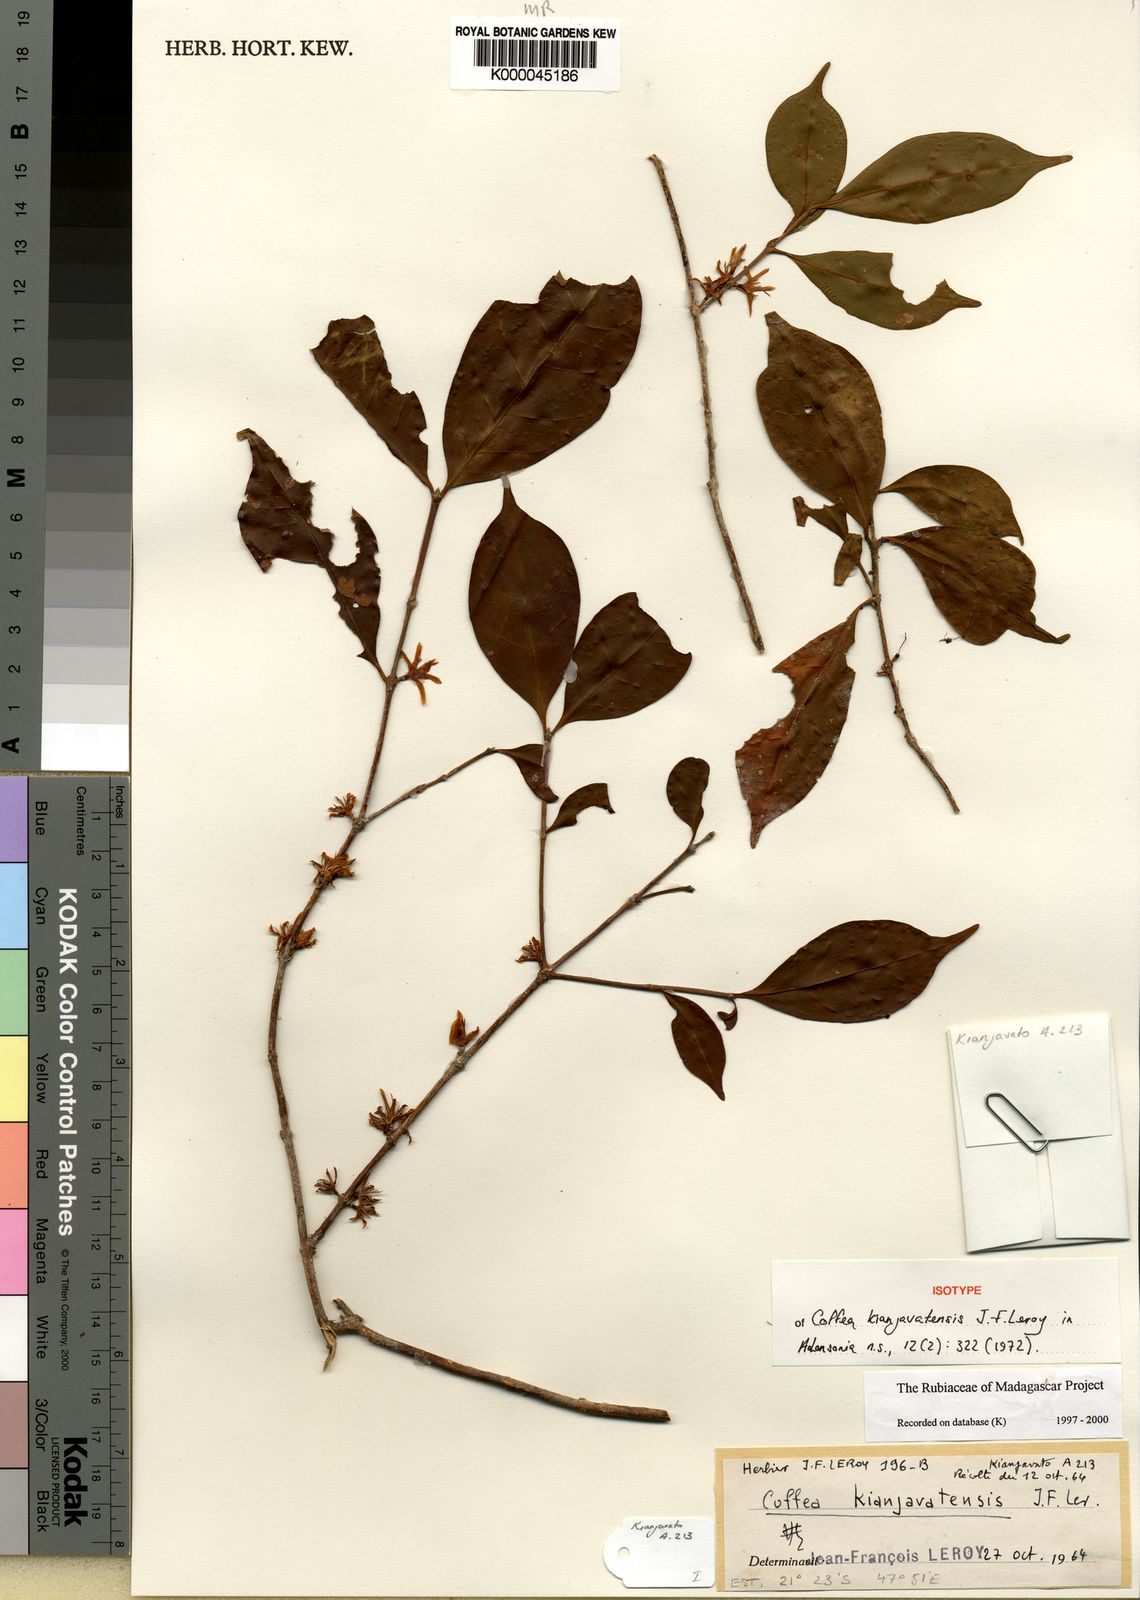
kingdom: Plantae
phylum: Tracheophyta
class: Magnoliopsida
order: Gentianales
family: Rubiaceae
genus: Coffea
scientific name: Coffea kianjavatensis
